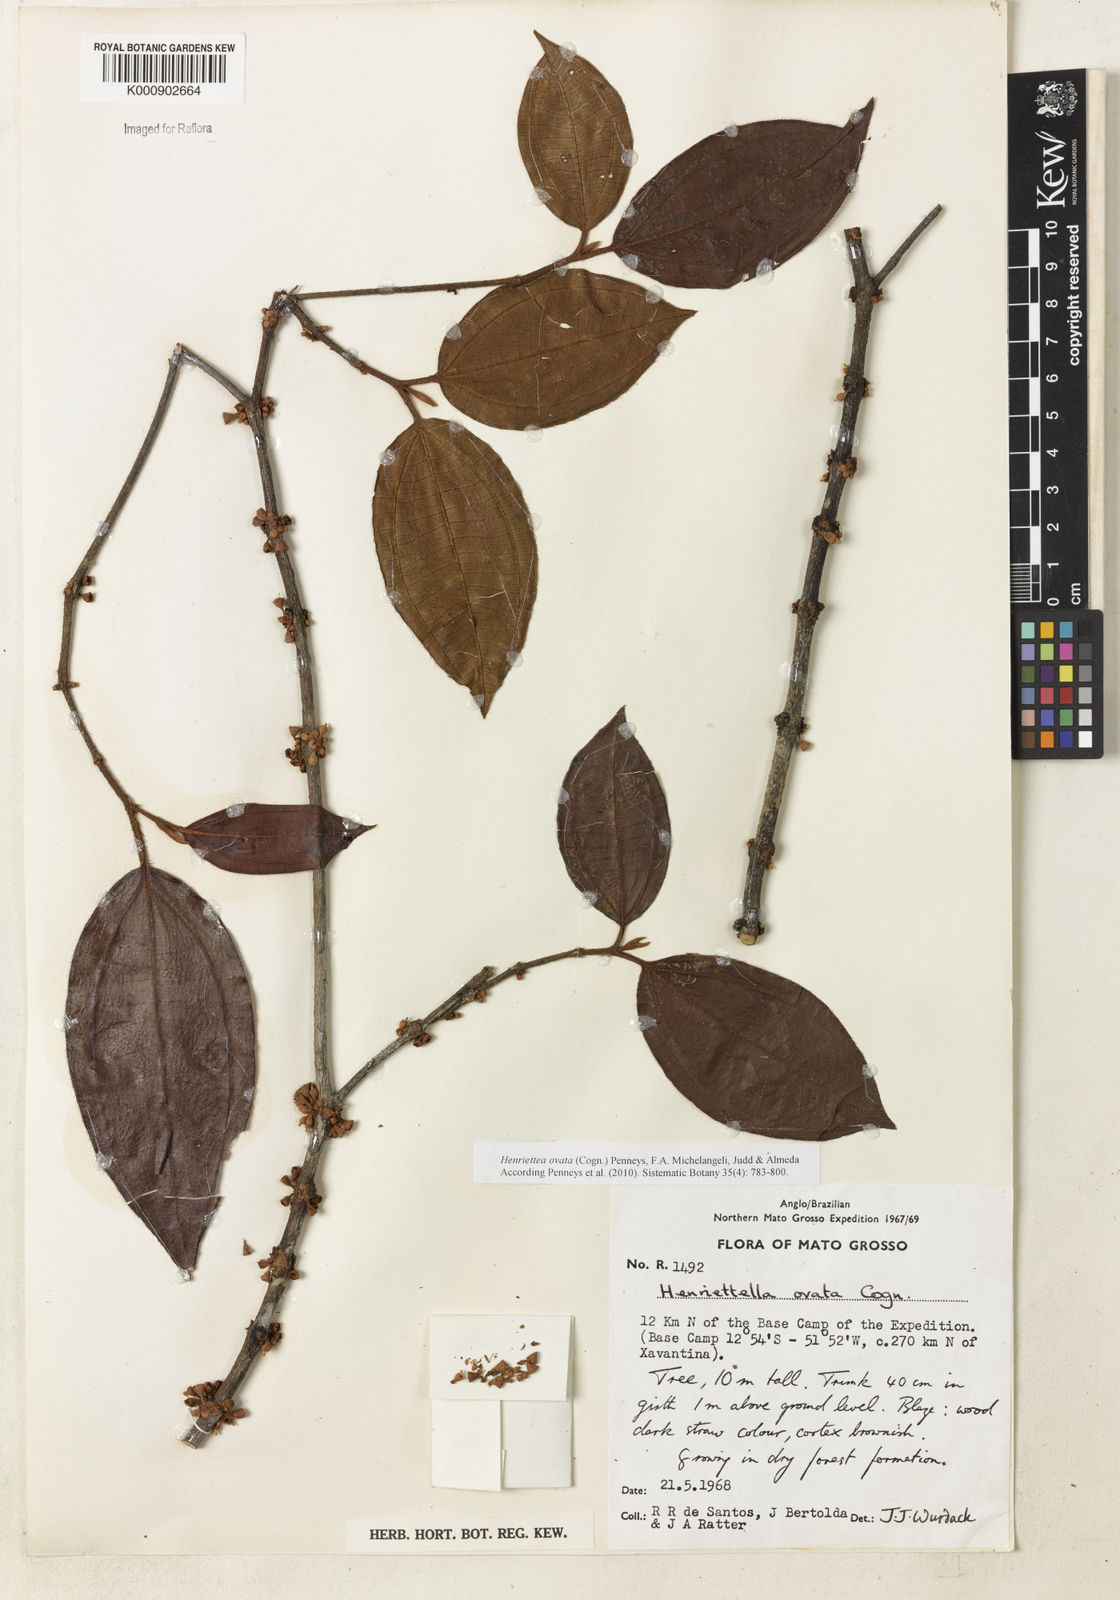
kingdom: Plantae
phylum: Tracheophyta
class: Magnoliopsida
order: Myrtales
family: Melastomataceae
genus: Henriettea
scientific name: Henriettea ovata
